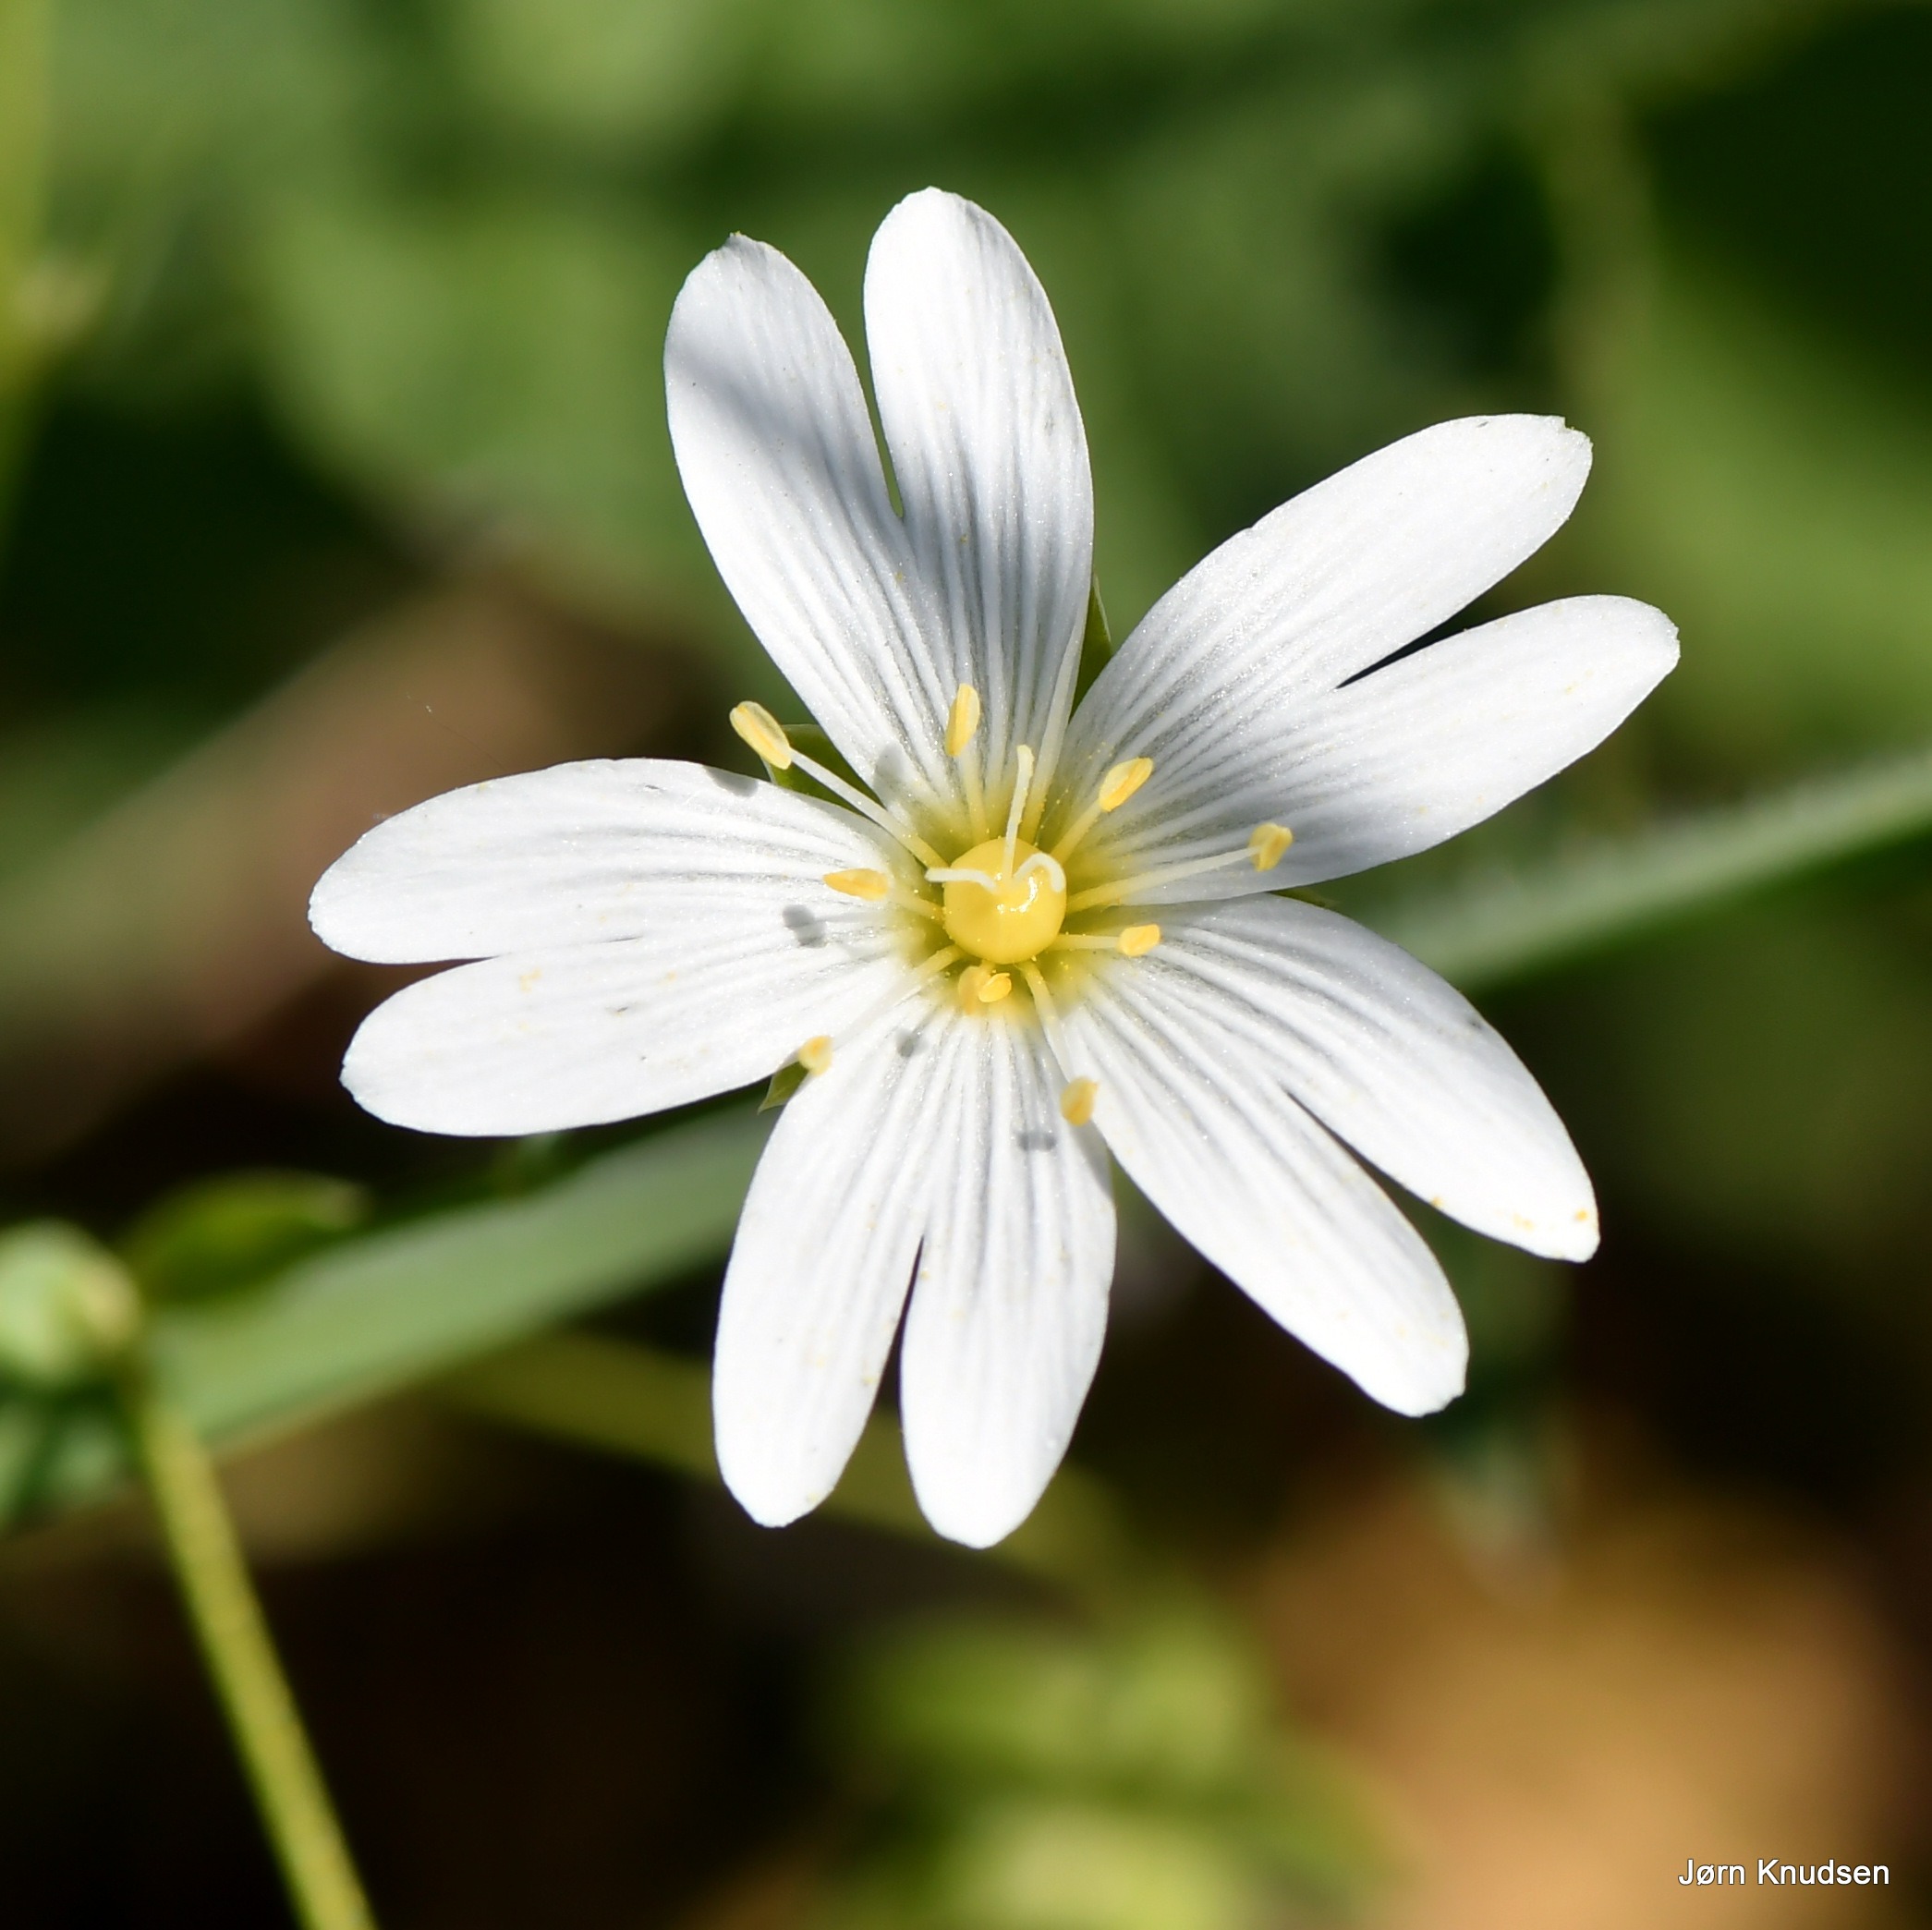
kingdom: Plantae
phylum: Tracheophyta
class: Magnoliopsida
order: Caryophyllales
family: Caryophyllaceae
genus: Rabelera
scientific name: Rabelera holostea
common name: Stor fladstjerne
